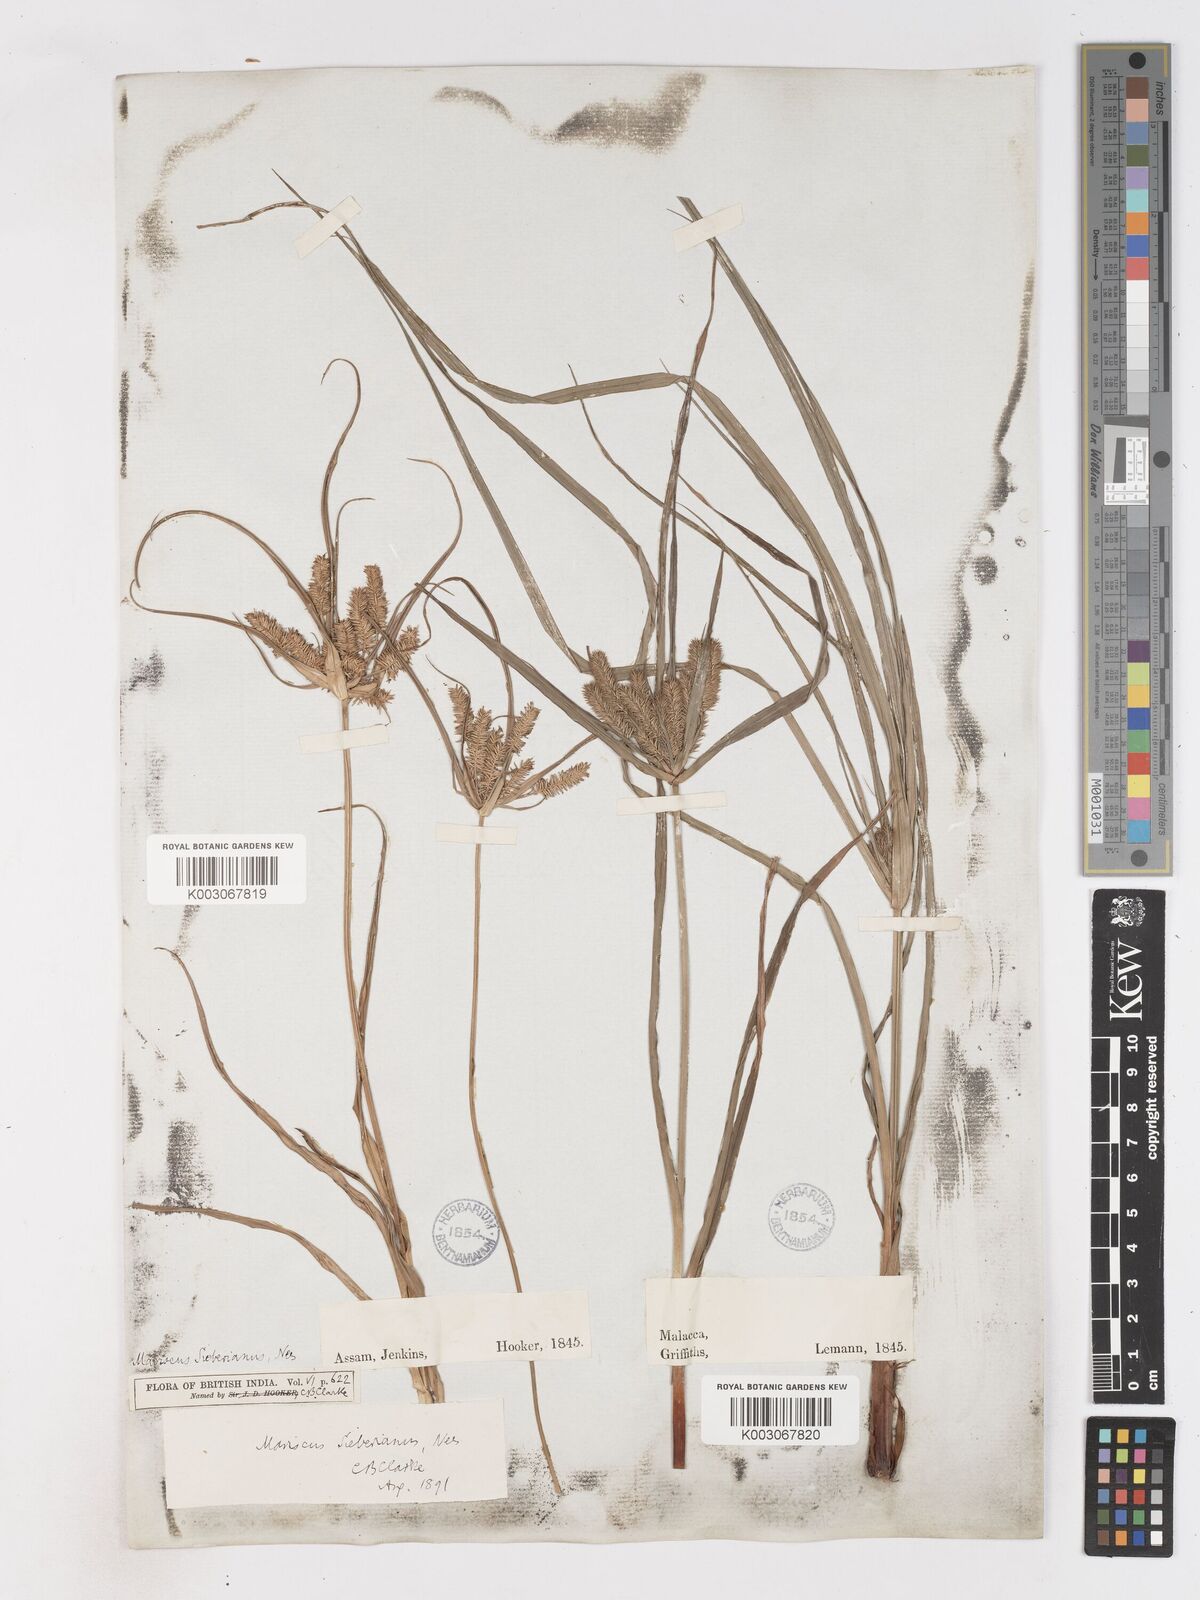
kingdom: Plantae
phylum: Tracheophyta
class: Liliopsida
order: Poales
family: Cyperaceae
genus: Cyperus
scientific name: Cyperus cyperoides
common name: Pacific island flat sedge
